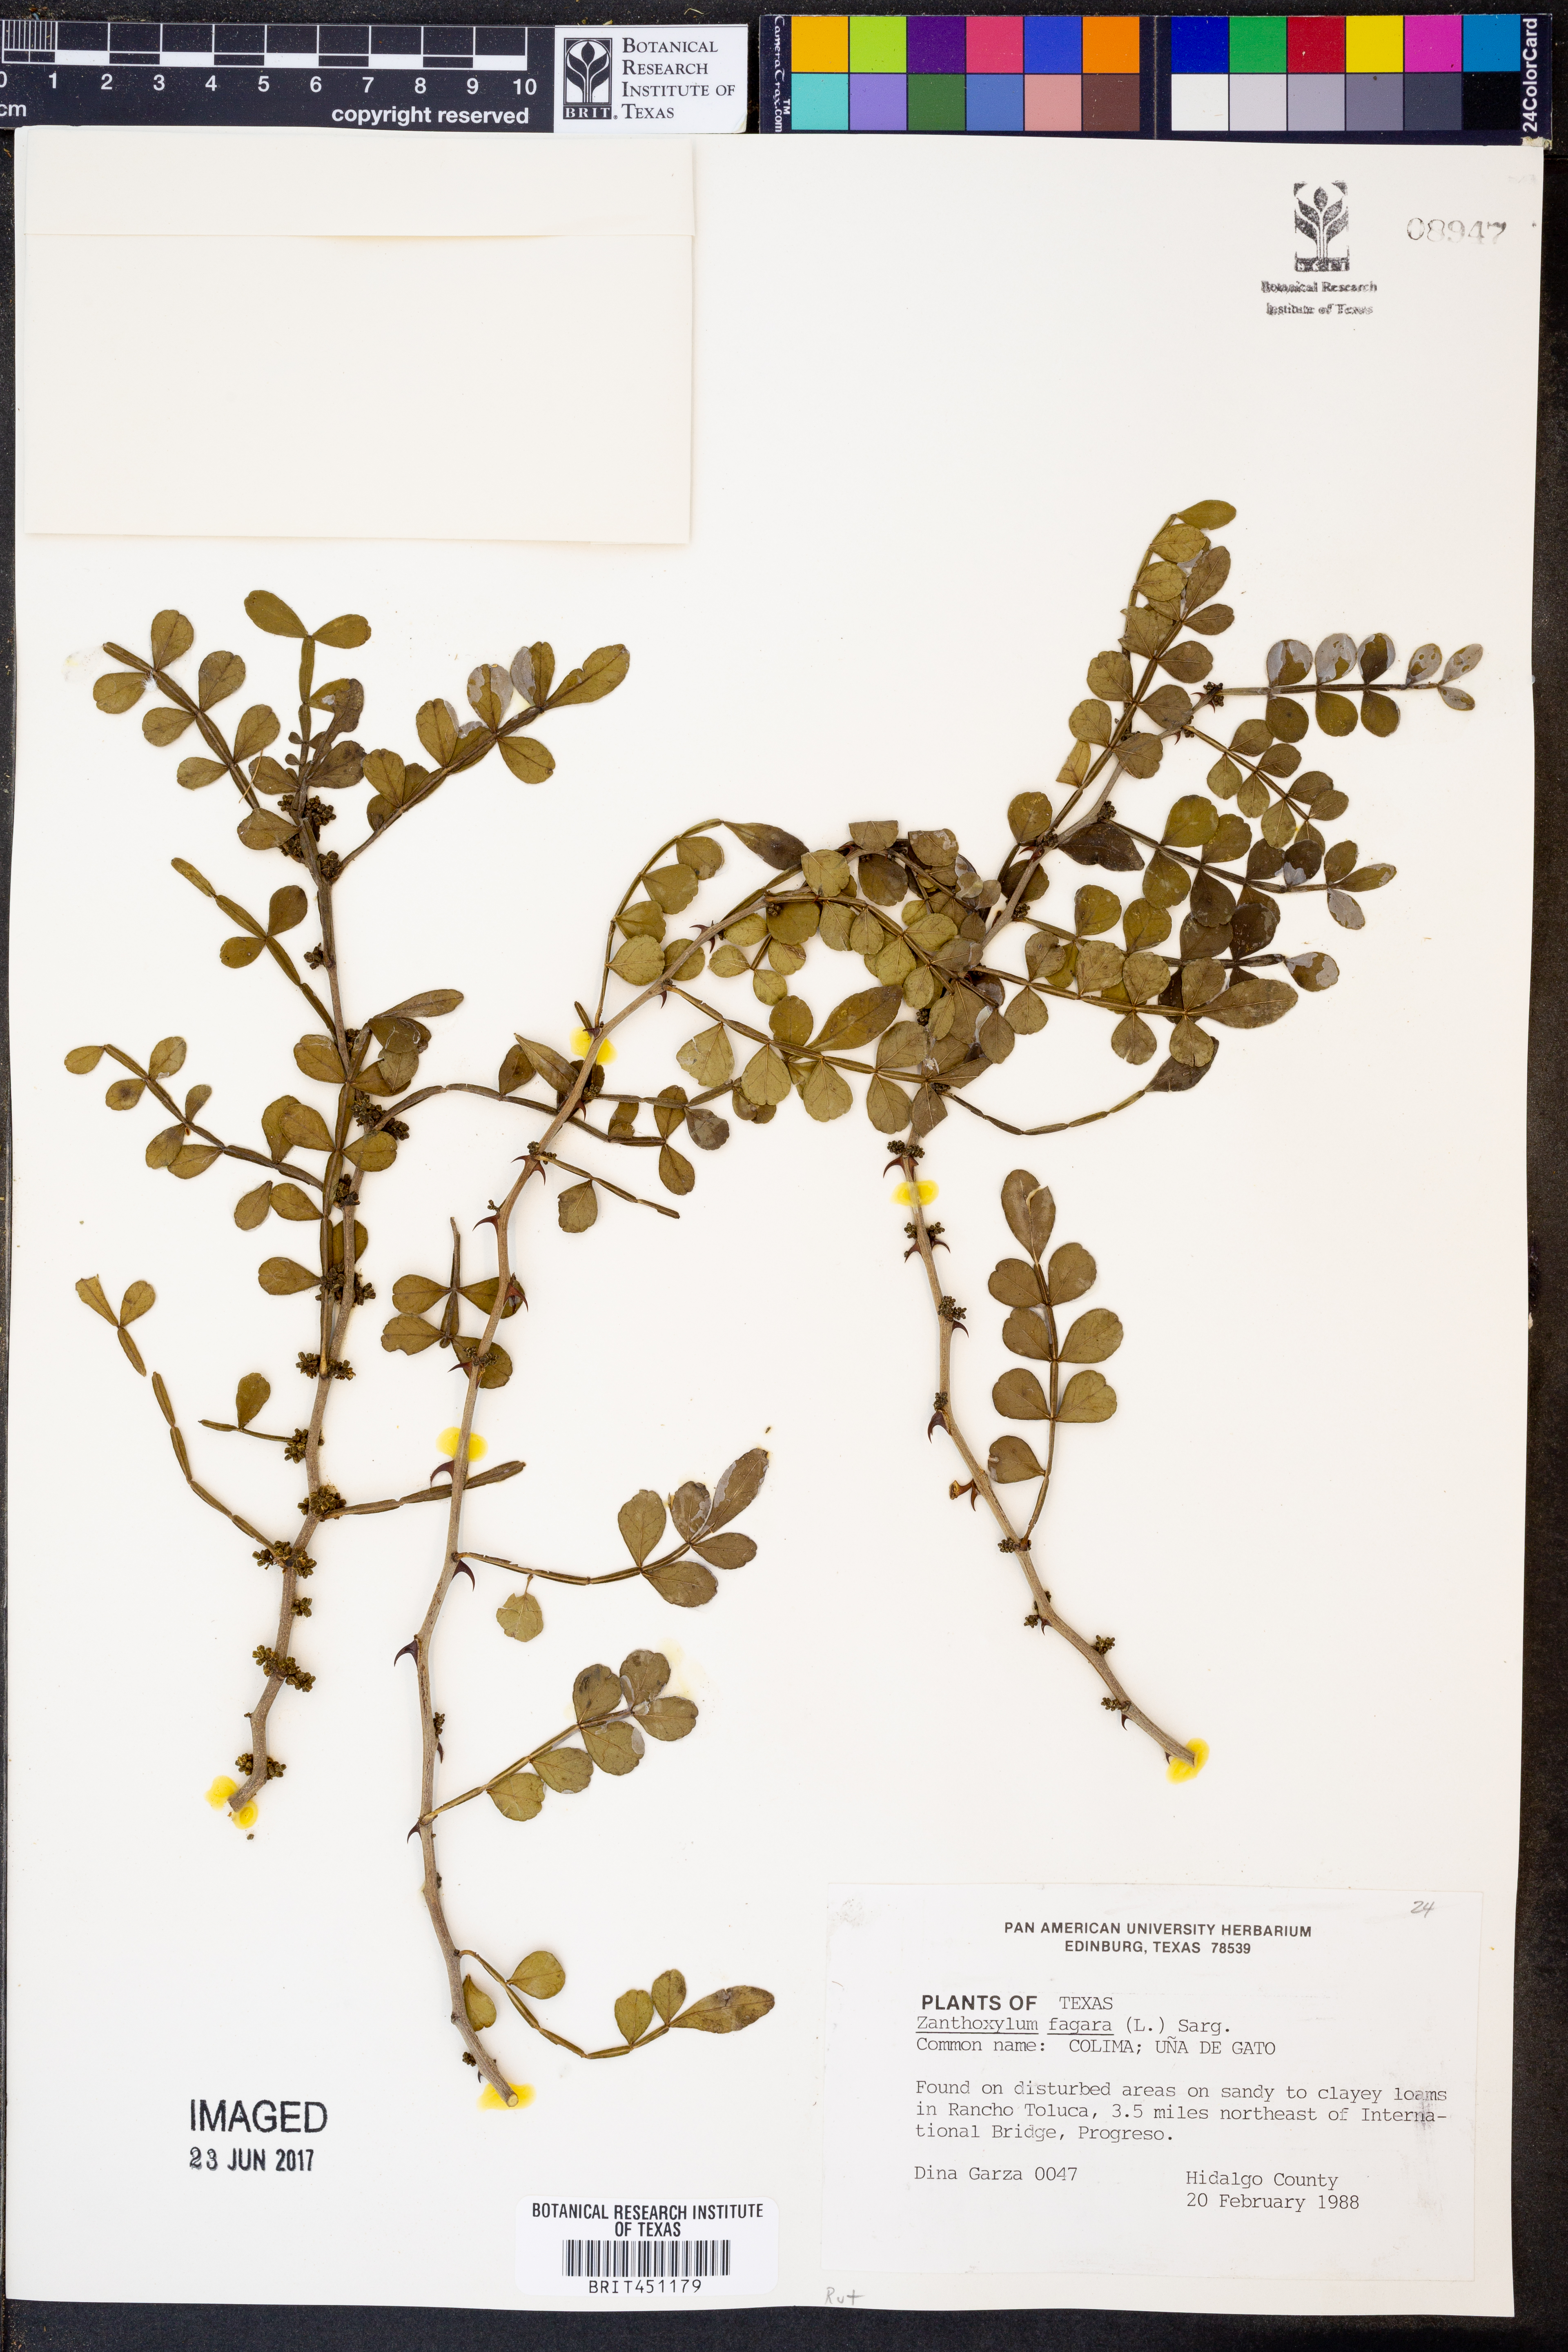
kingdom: Plantae
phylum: Tracheophyta
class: Magnoliopsida
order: Sapindales
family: Rutaceae
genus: Zanthoxylum
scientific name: Zanthoxylum fagara
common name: Lime prickly-ash
